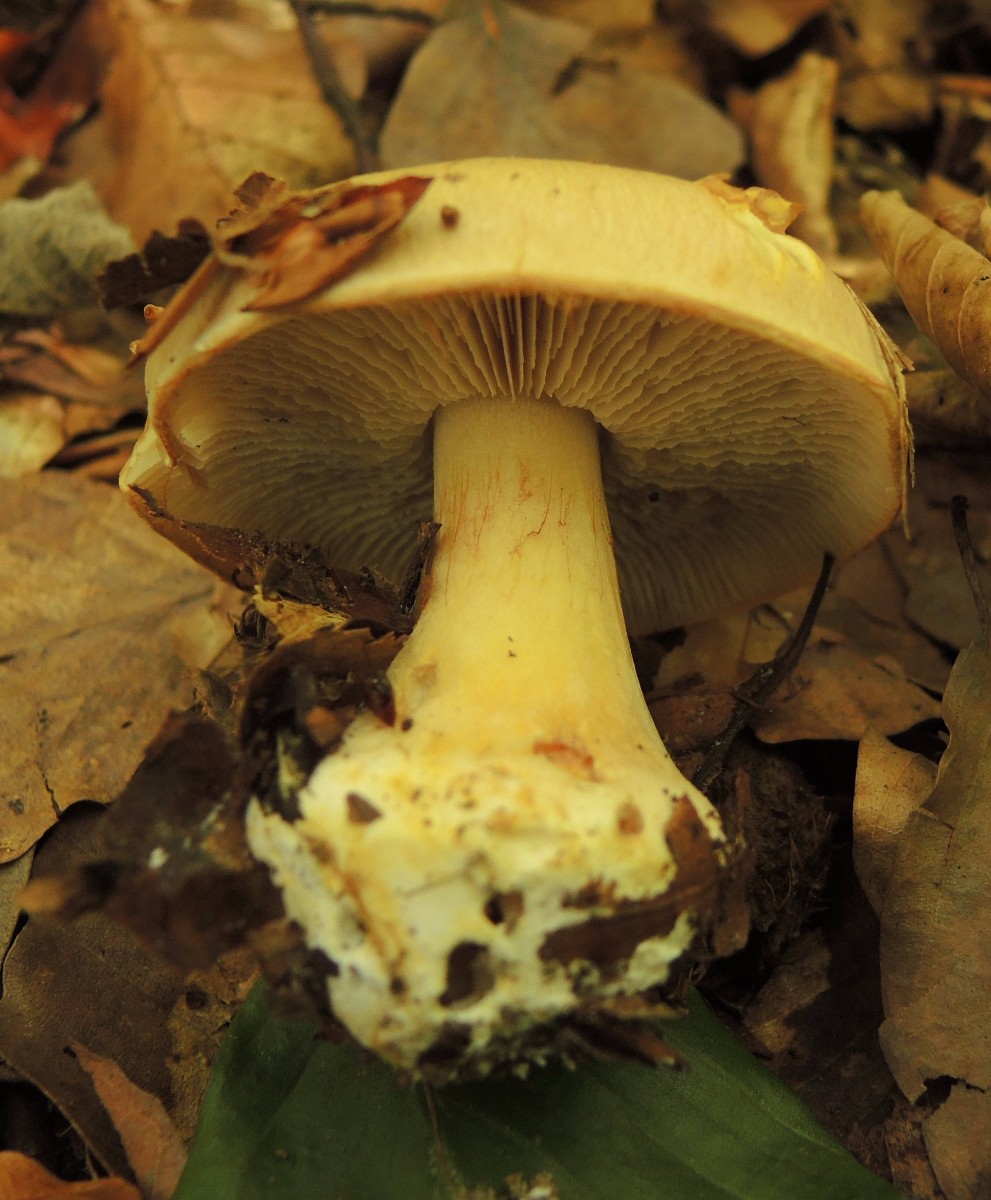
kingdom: Fungi
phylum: Basidiomycota
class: Agaricomycetes
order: Agaricales
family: Cortinariaceae
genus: Thaxterogaster
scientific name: Thaxterogaster talus
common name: knogle-slørhat
